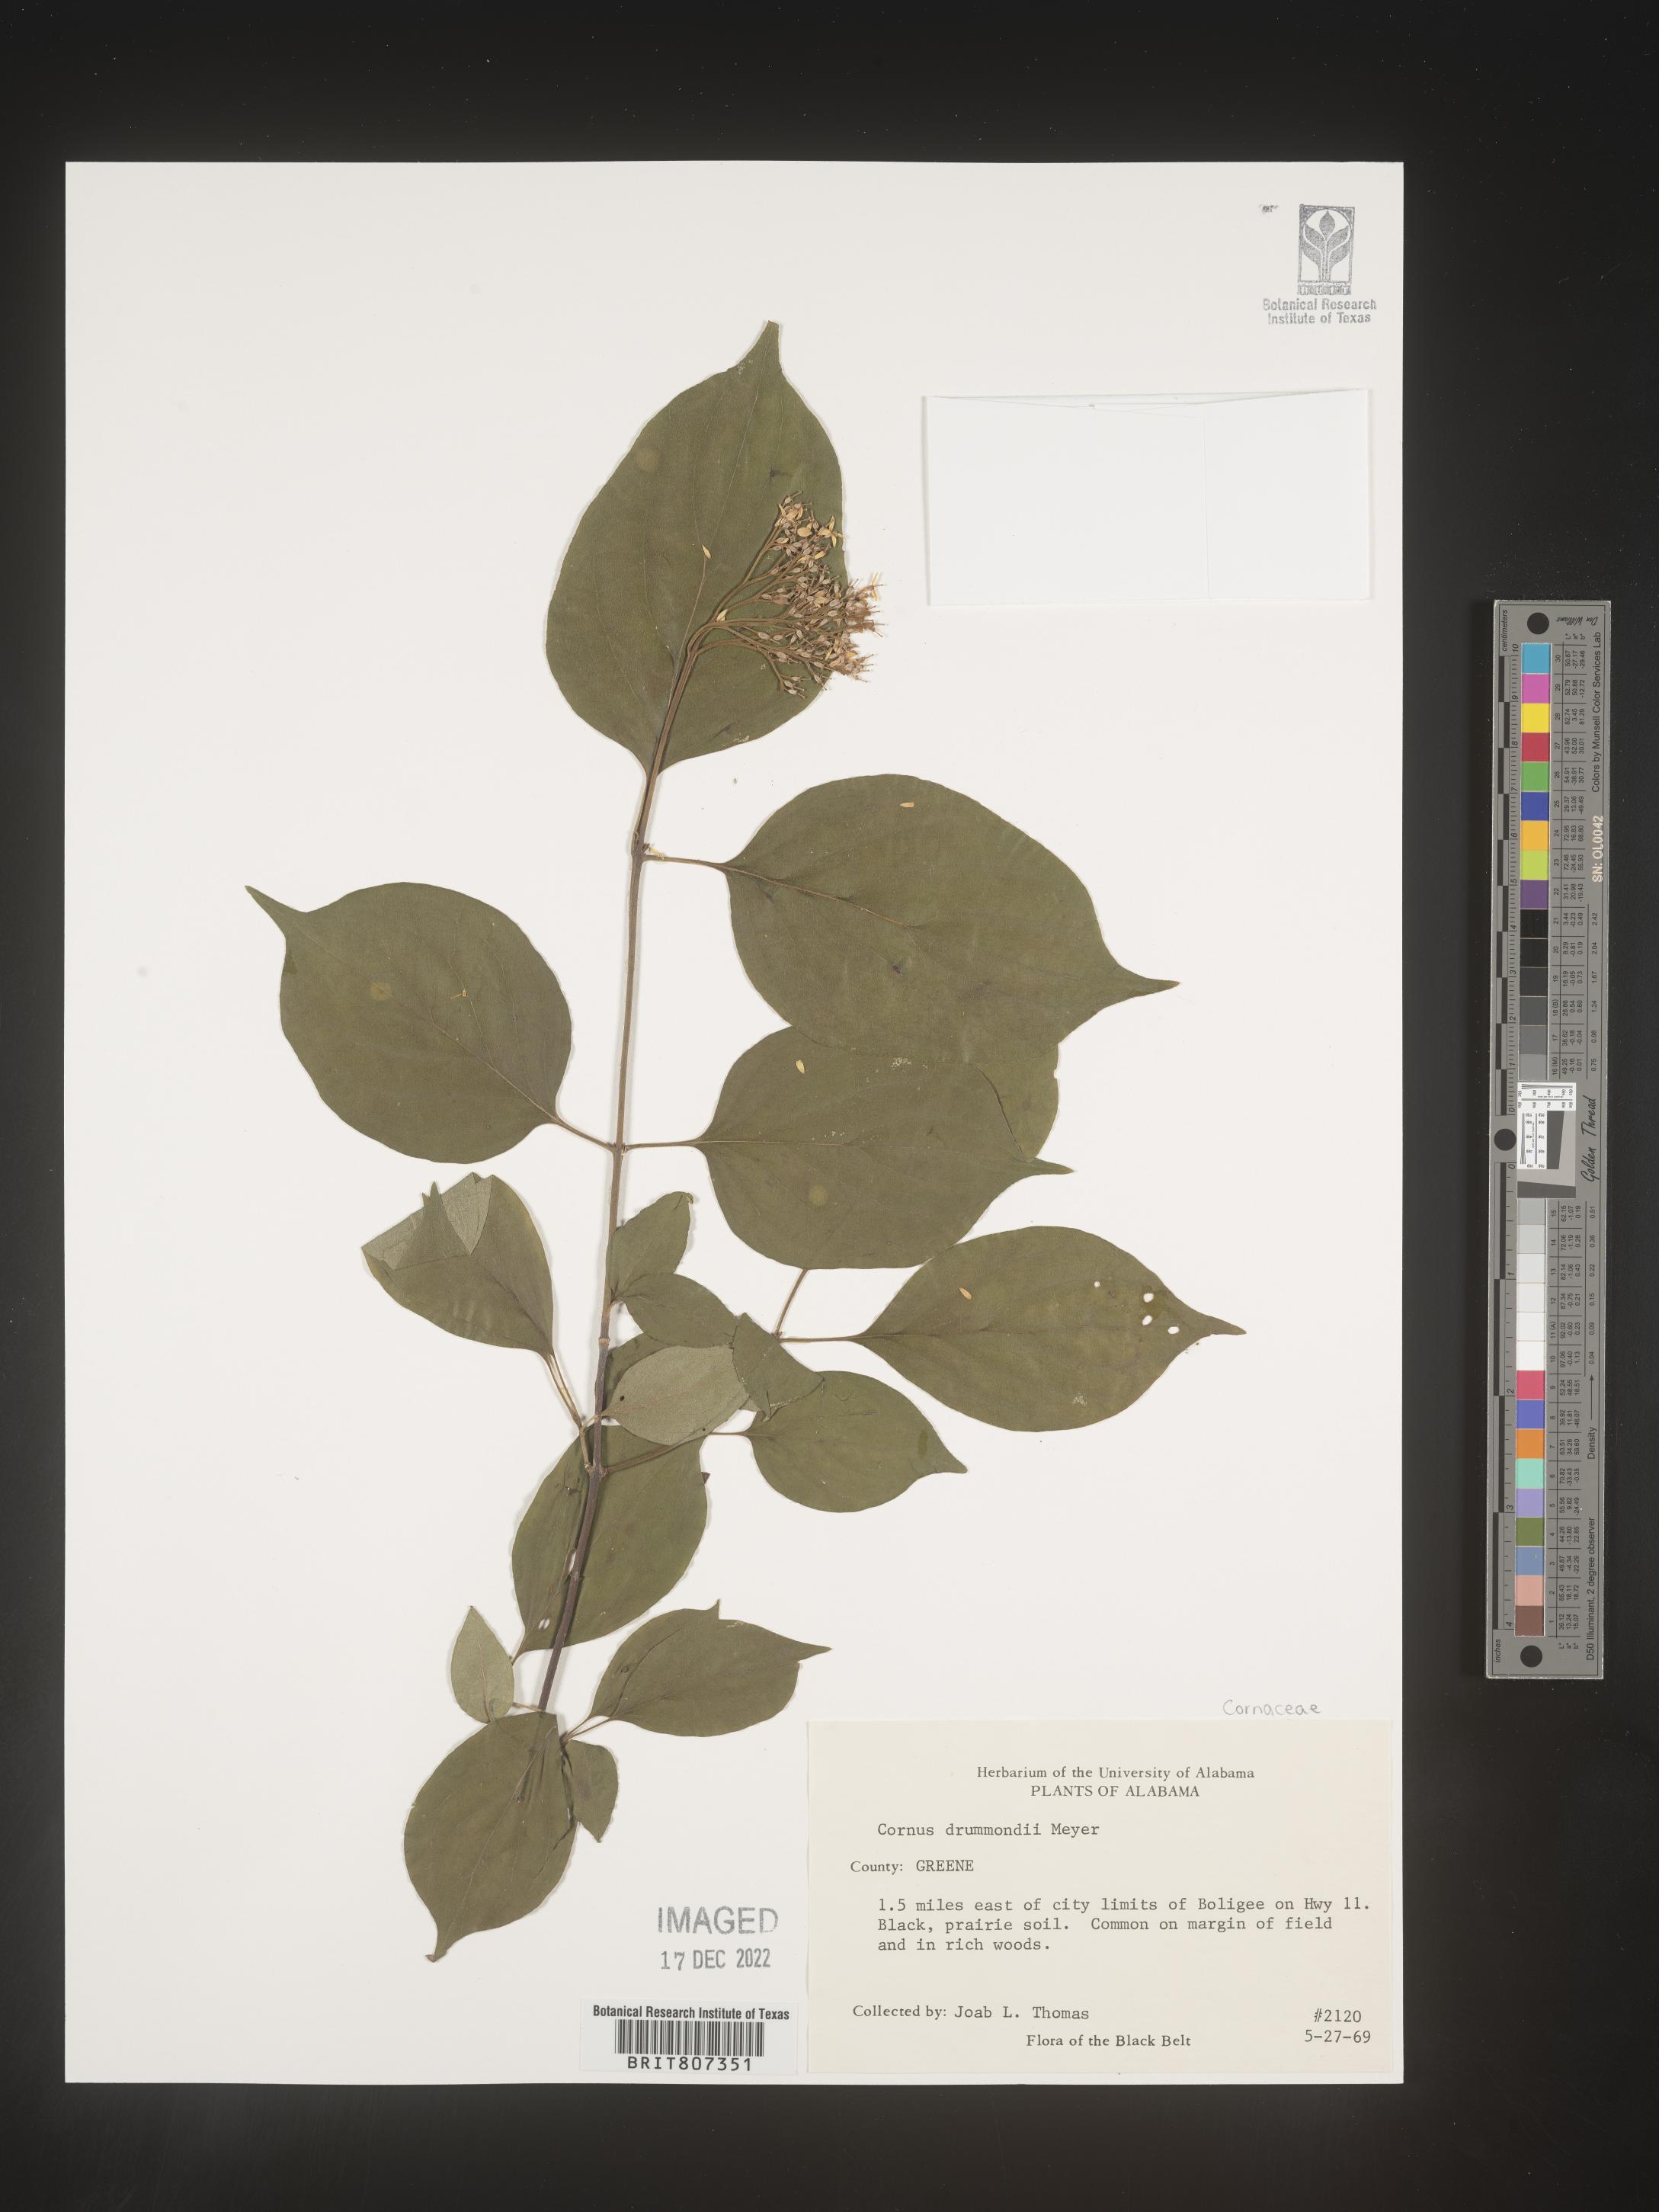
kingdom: Plantae
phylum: Tracheophyta
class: Magnoliopsida
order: Cornales
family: Cornaceae
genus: Cornus
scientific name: Cornus drummondii
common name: Rough-leaf dogwood
